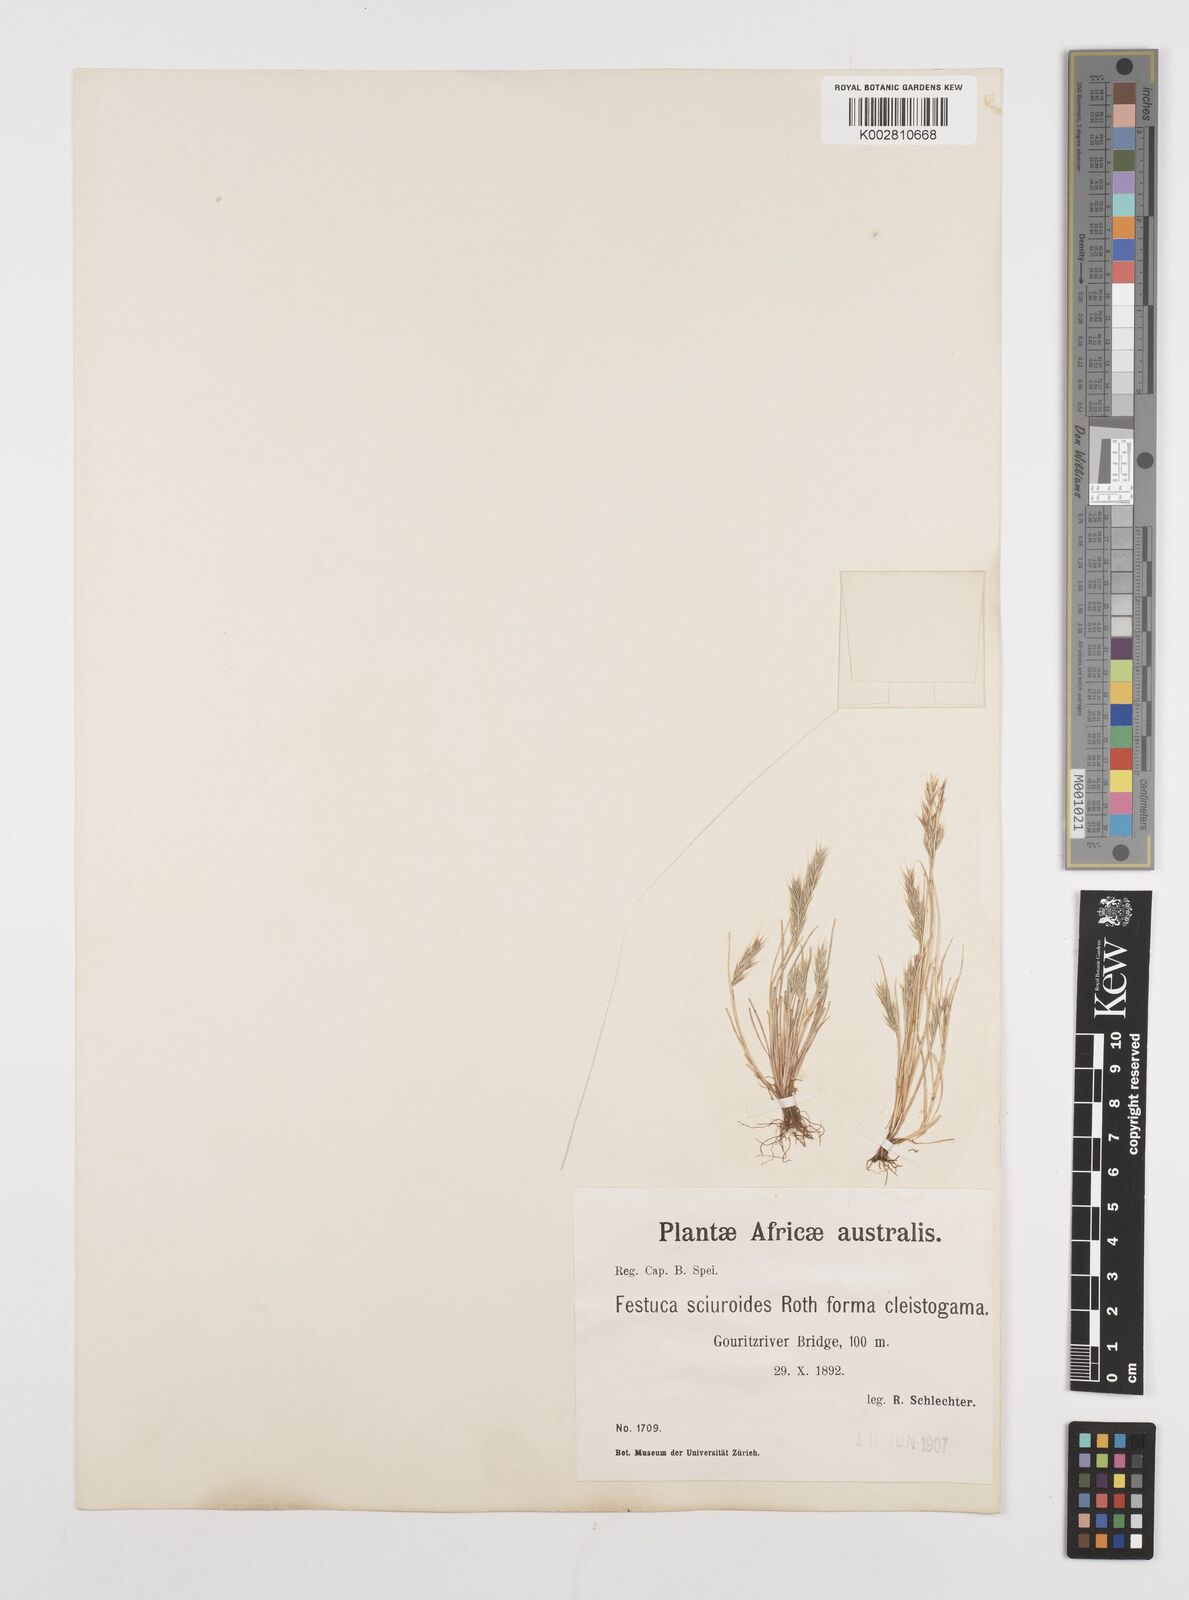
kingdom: Plantae
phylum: Tracheophyta
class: Liliopsida
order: Poales
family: Poaceae
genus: Festuca
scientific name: Festuca bromoides
